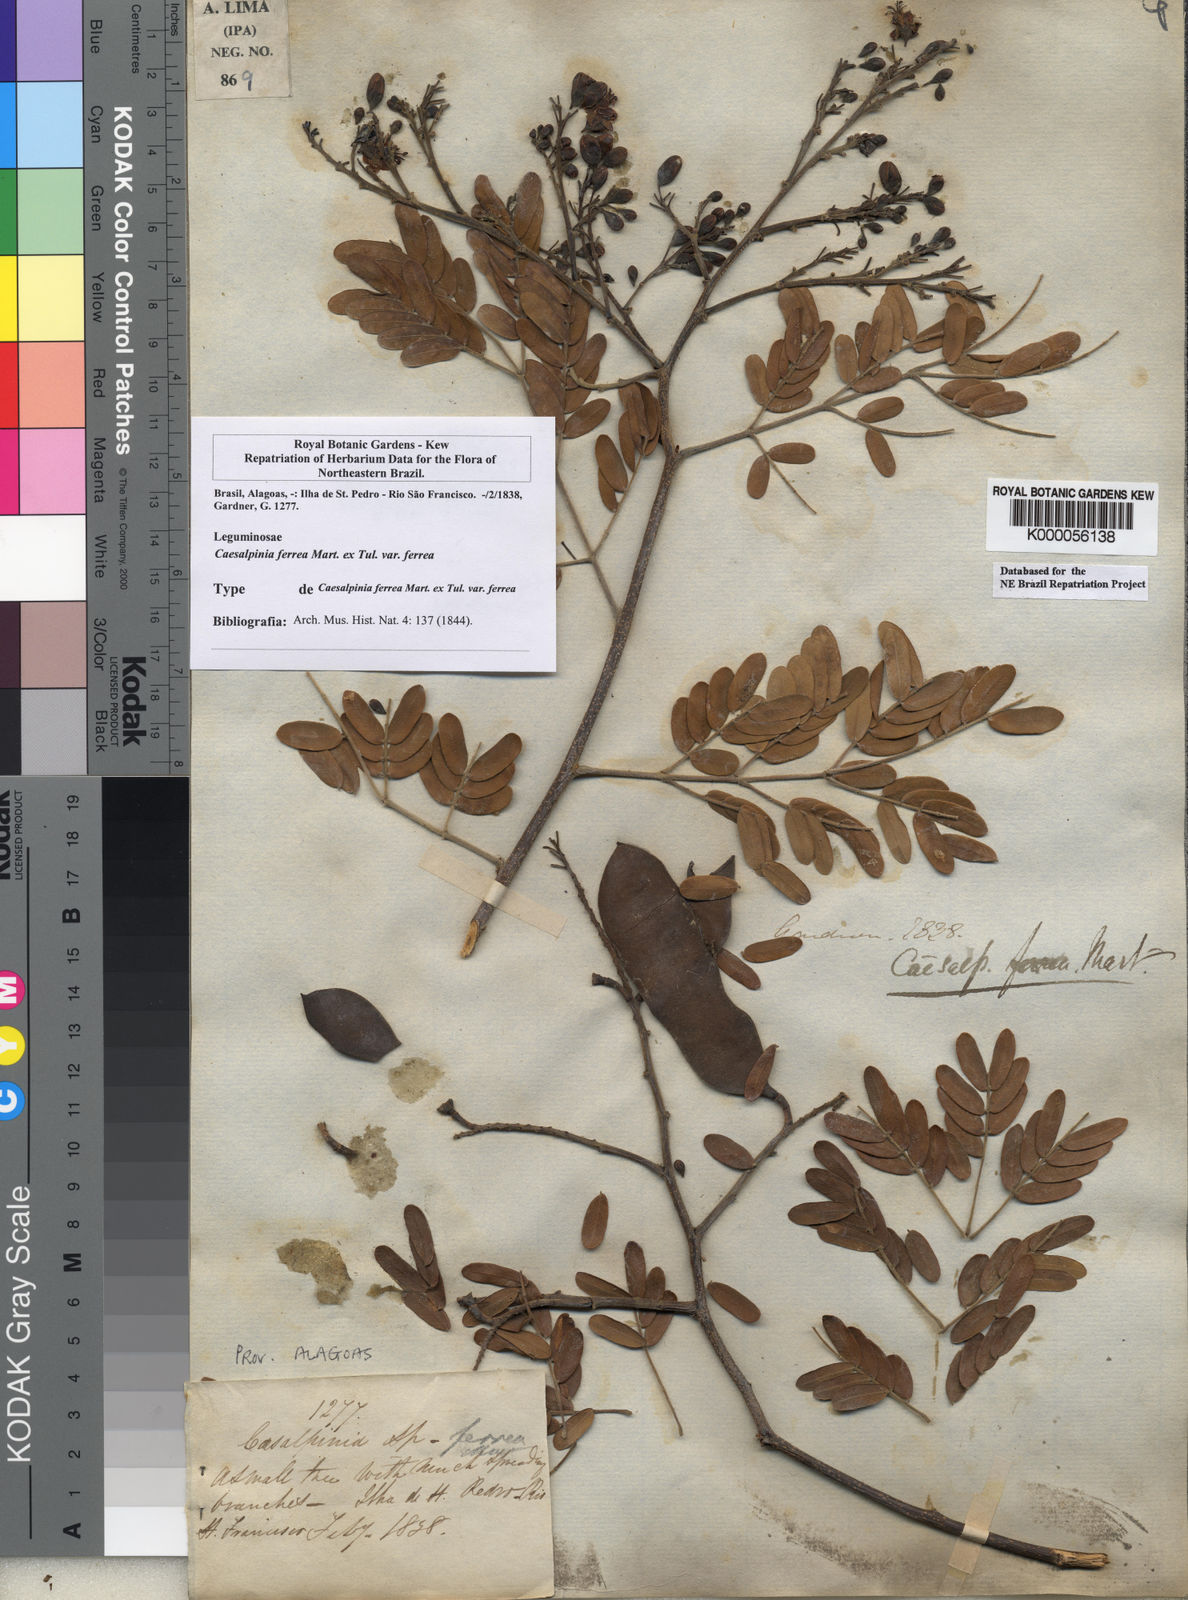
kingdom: Plantae
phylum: Tracheophyta
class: Magnoliopsida
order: Fabales
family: Fabaceae
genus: Libidibia
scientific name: Libidibia ferrea
